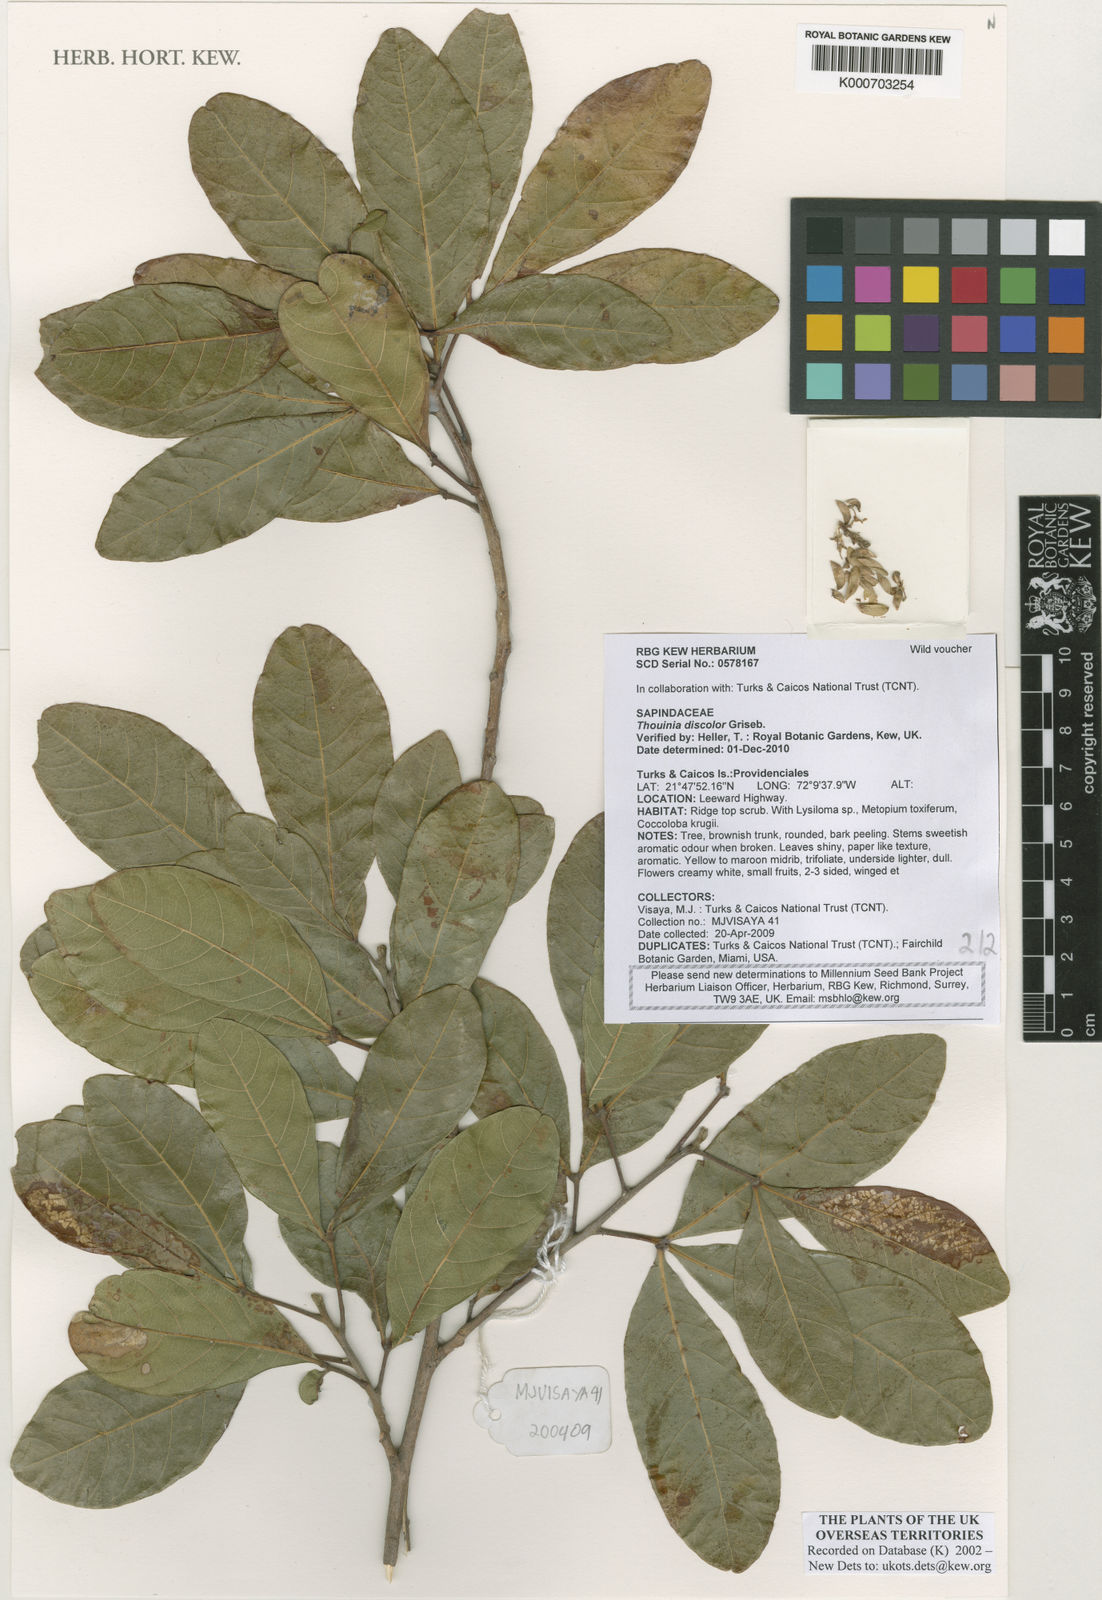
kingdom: Plantae
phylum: Tracheophyta
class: Magnoliopsida
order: Sapindales
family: Sapindaceae
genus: Thouinia
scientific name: Thouinia discolor
